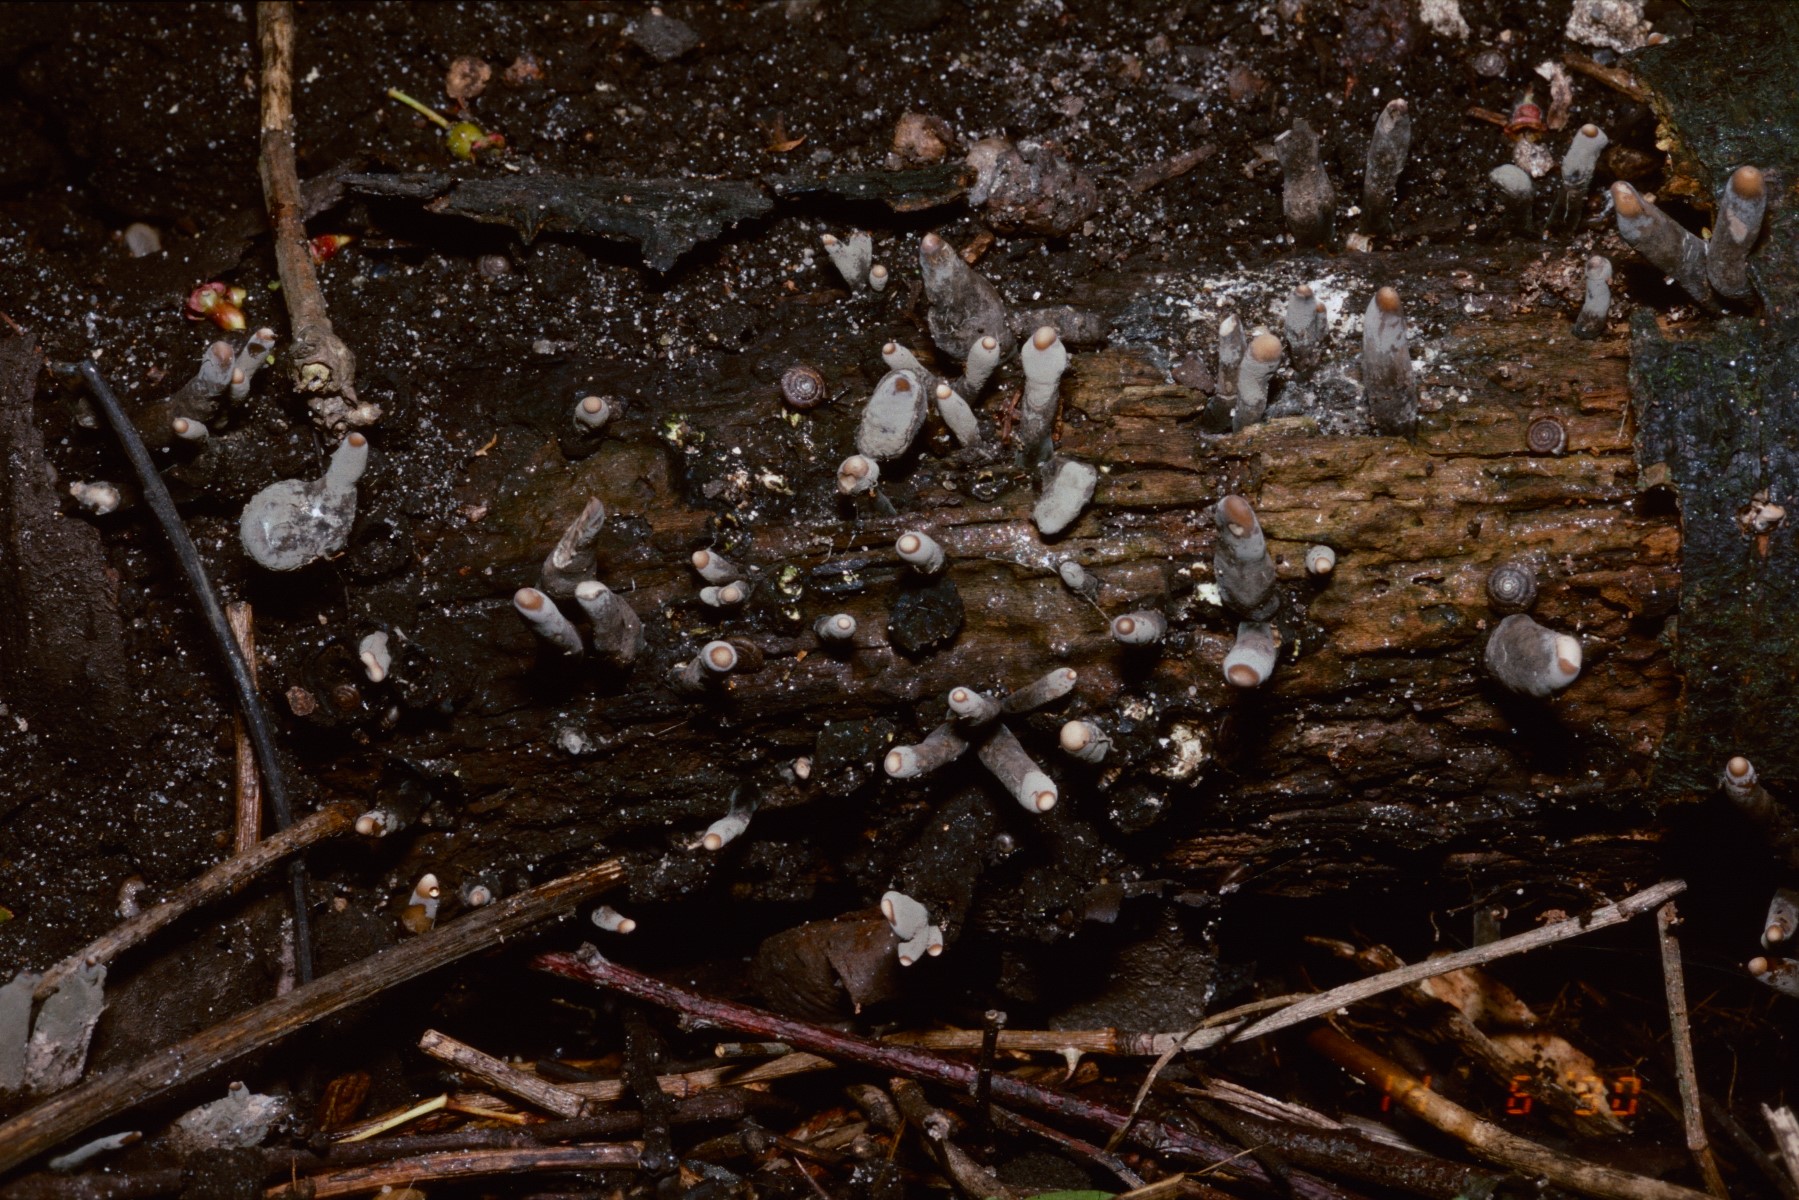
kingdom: Fungi
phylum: Ascomycota
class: Sordariomycetes
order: Xylariales
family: Xylariaceae
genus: Xylaria
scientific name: Xylaria longipes
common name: slank stødsvamp
